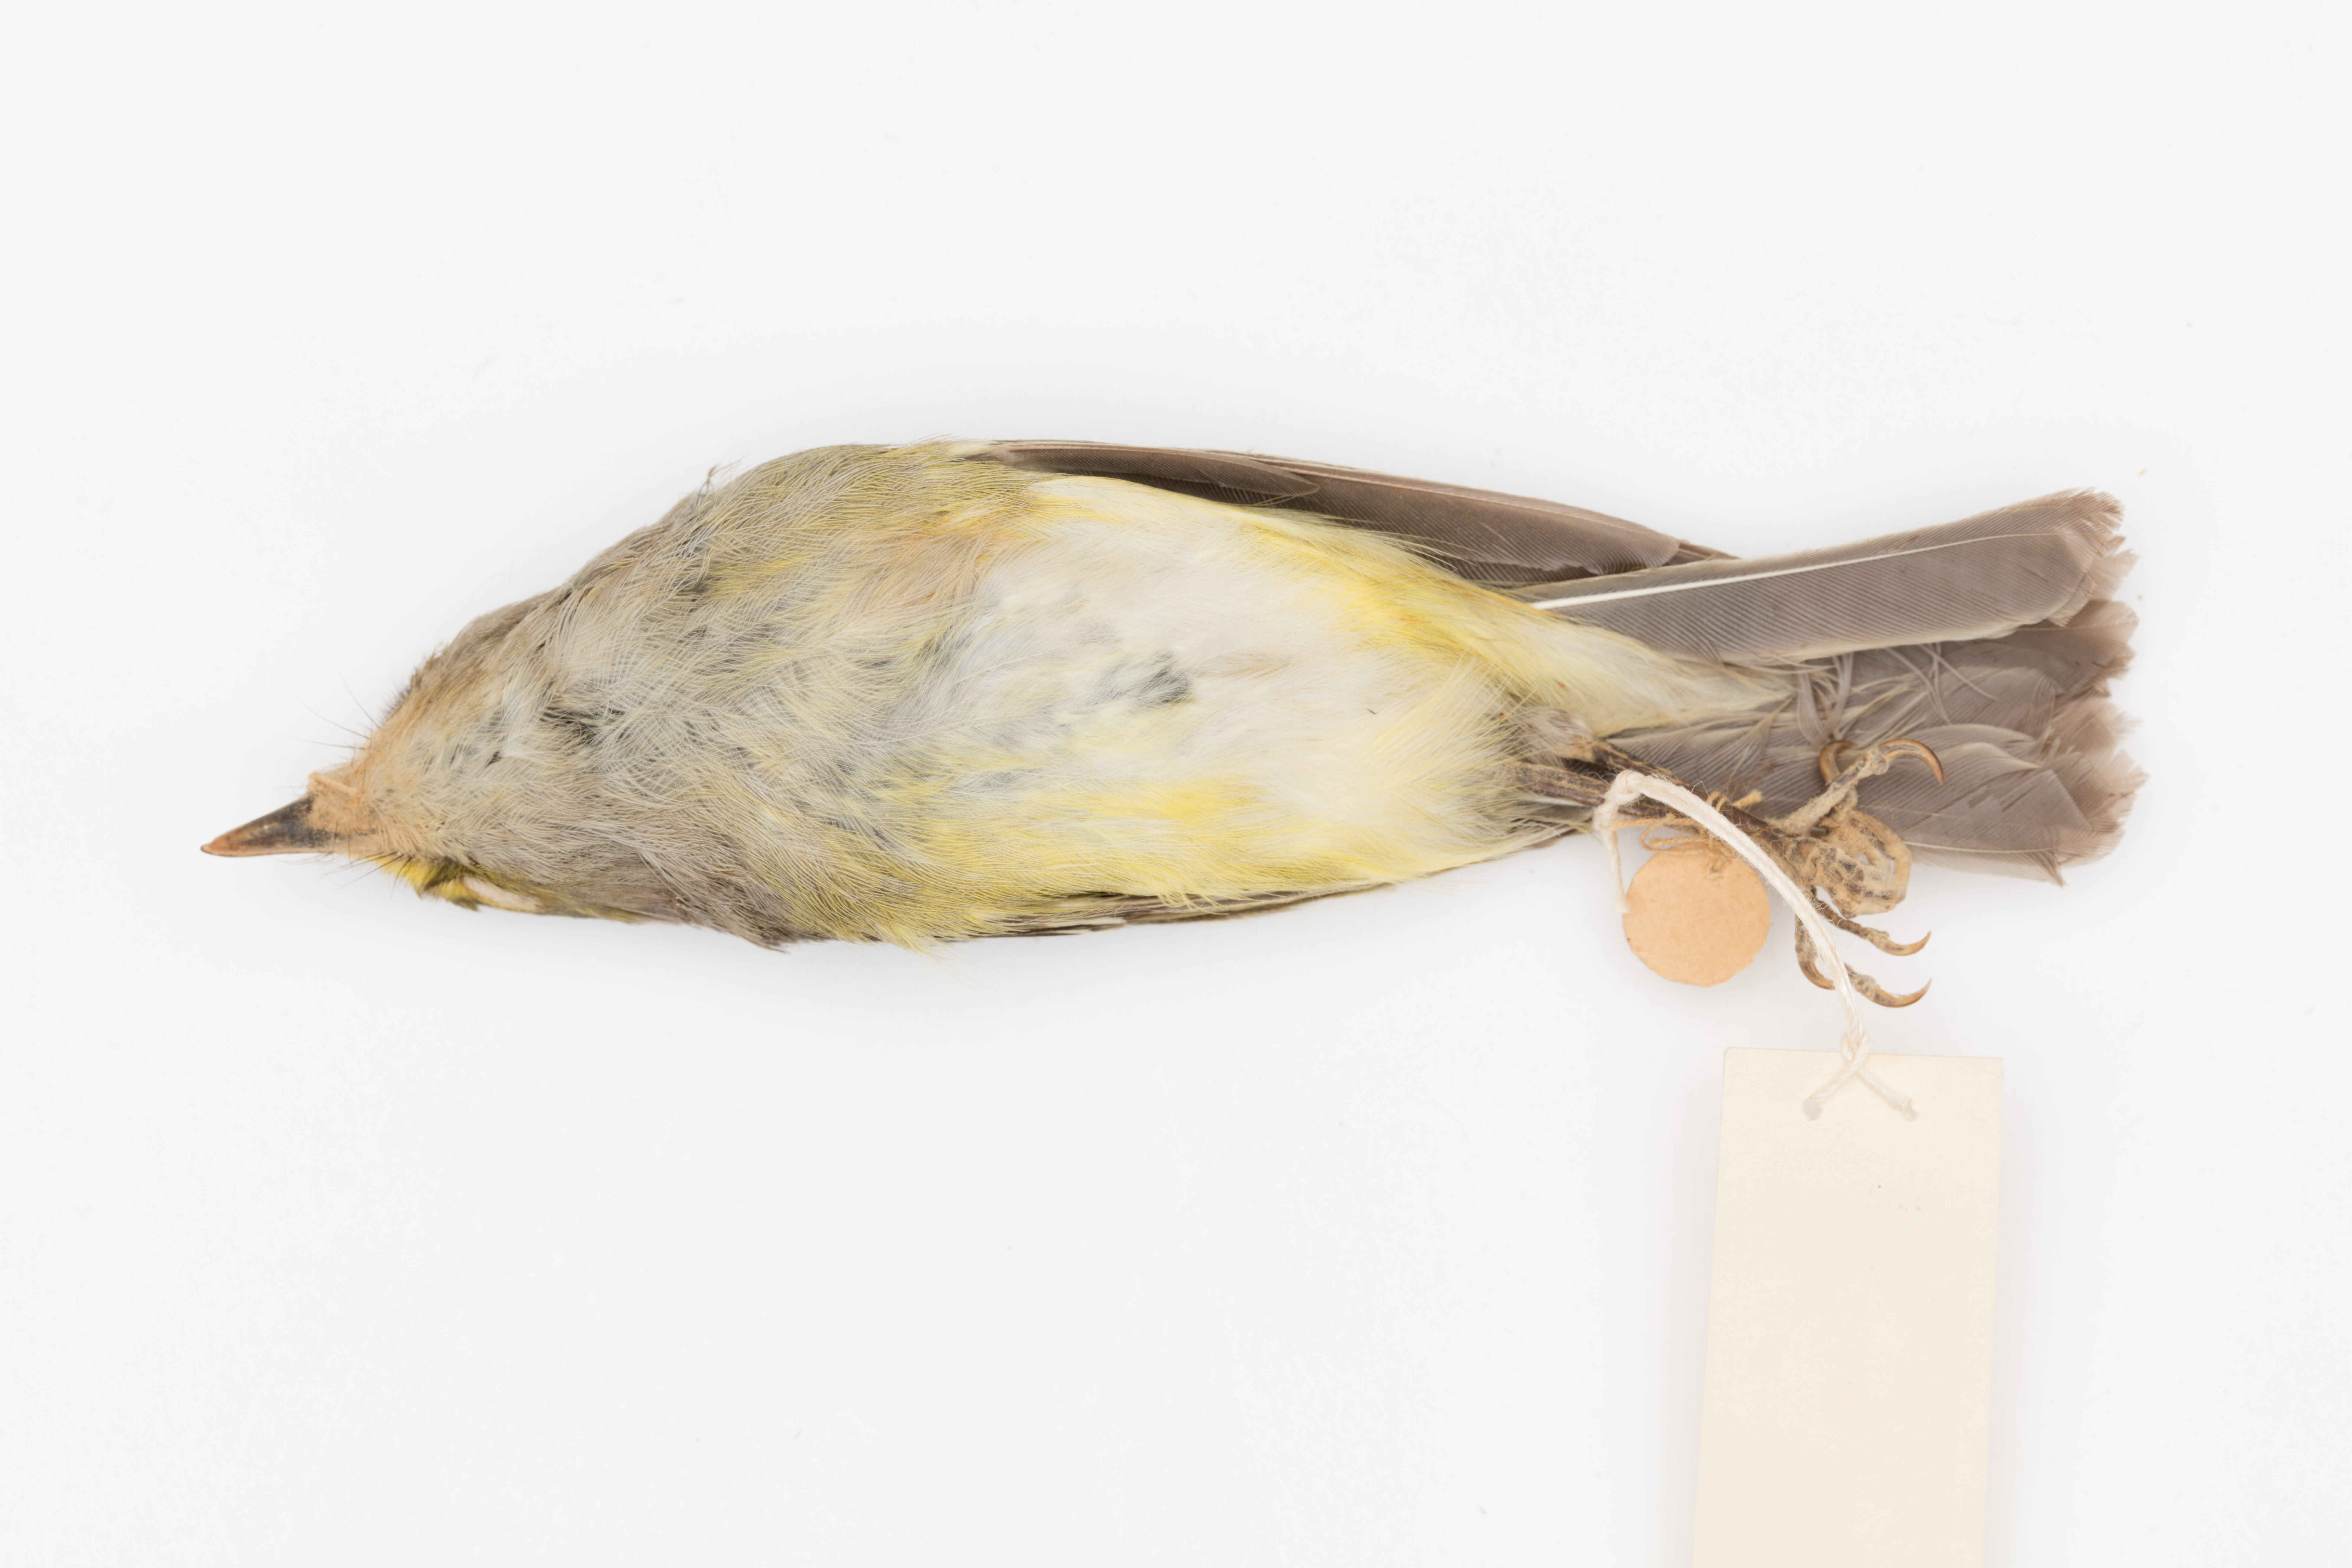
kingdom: Animalia
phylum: Chordata
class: Aves
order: Passeriformes
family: Vireonidae
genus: Vireo
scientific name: Vireo griseus
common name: White-eyed vireo
